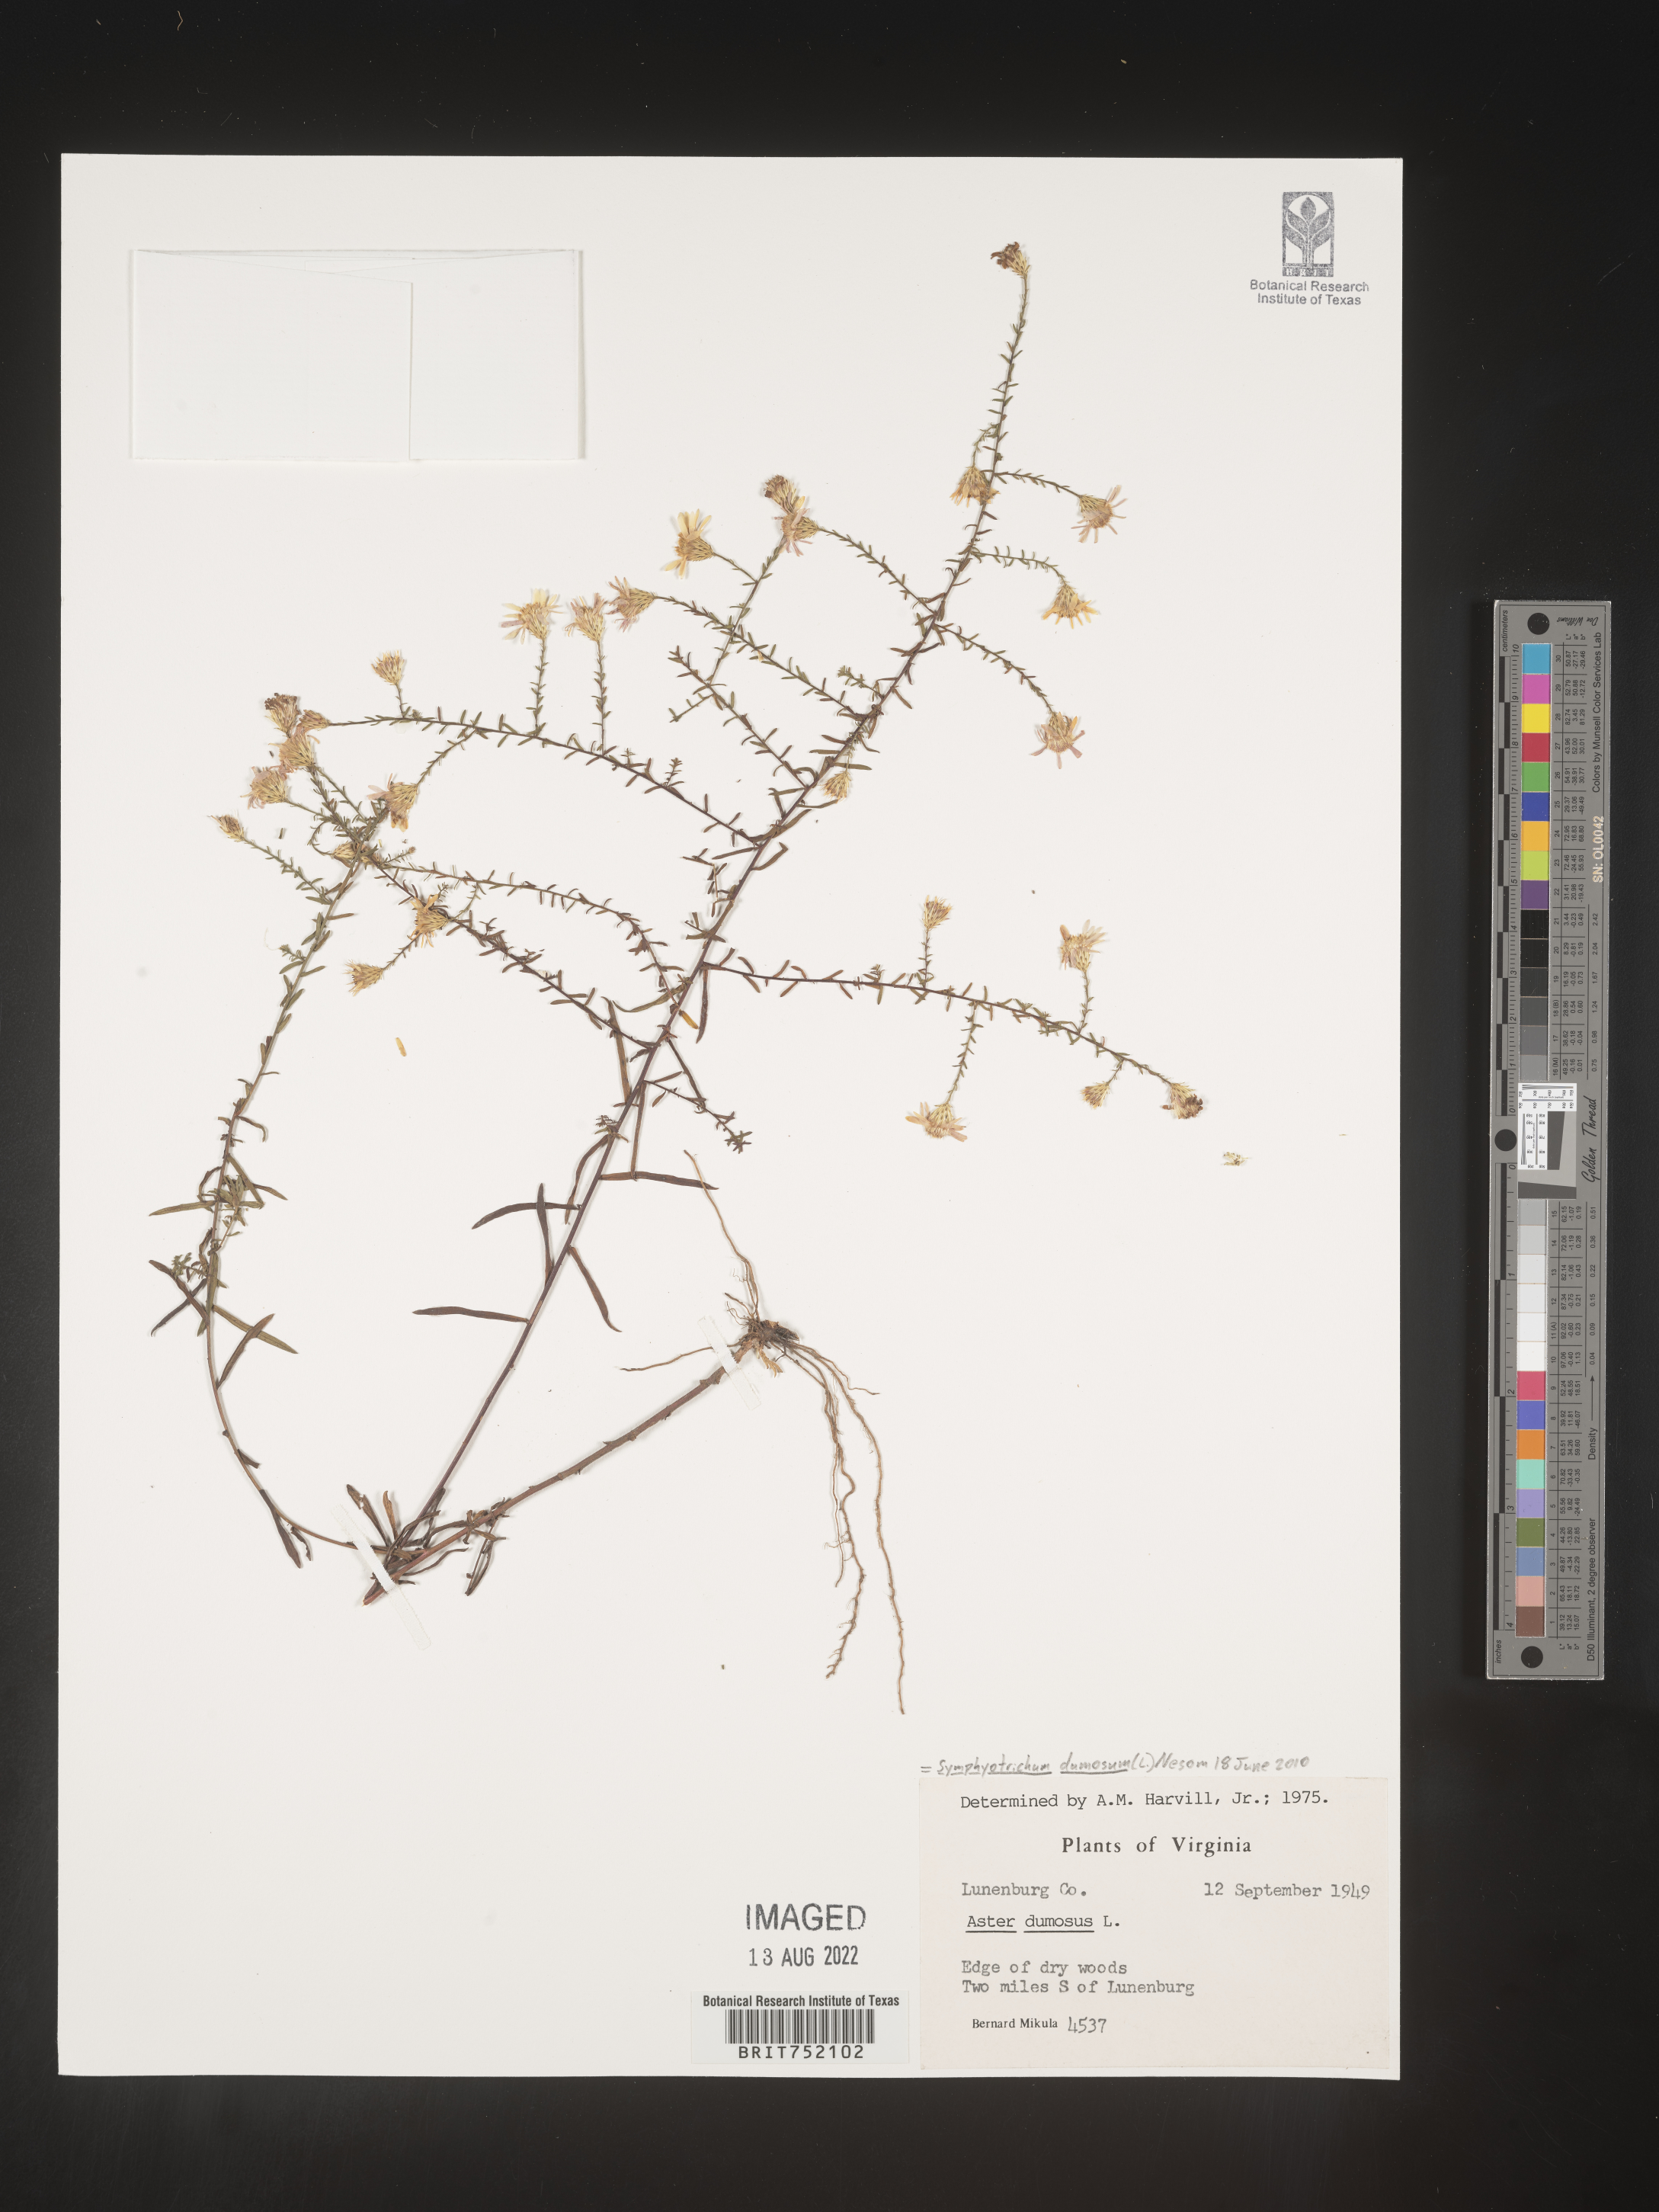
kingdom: Plantae
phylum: Tracheophyta
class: Magnoliopsida
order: Asterales
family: Asteraceae
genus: Symphyotrichum
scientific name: Symphyotrichum dumosum
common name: Bushy aster
